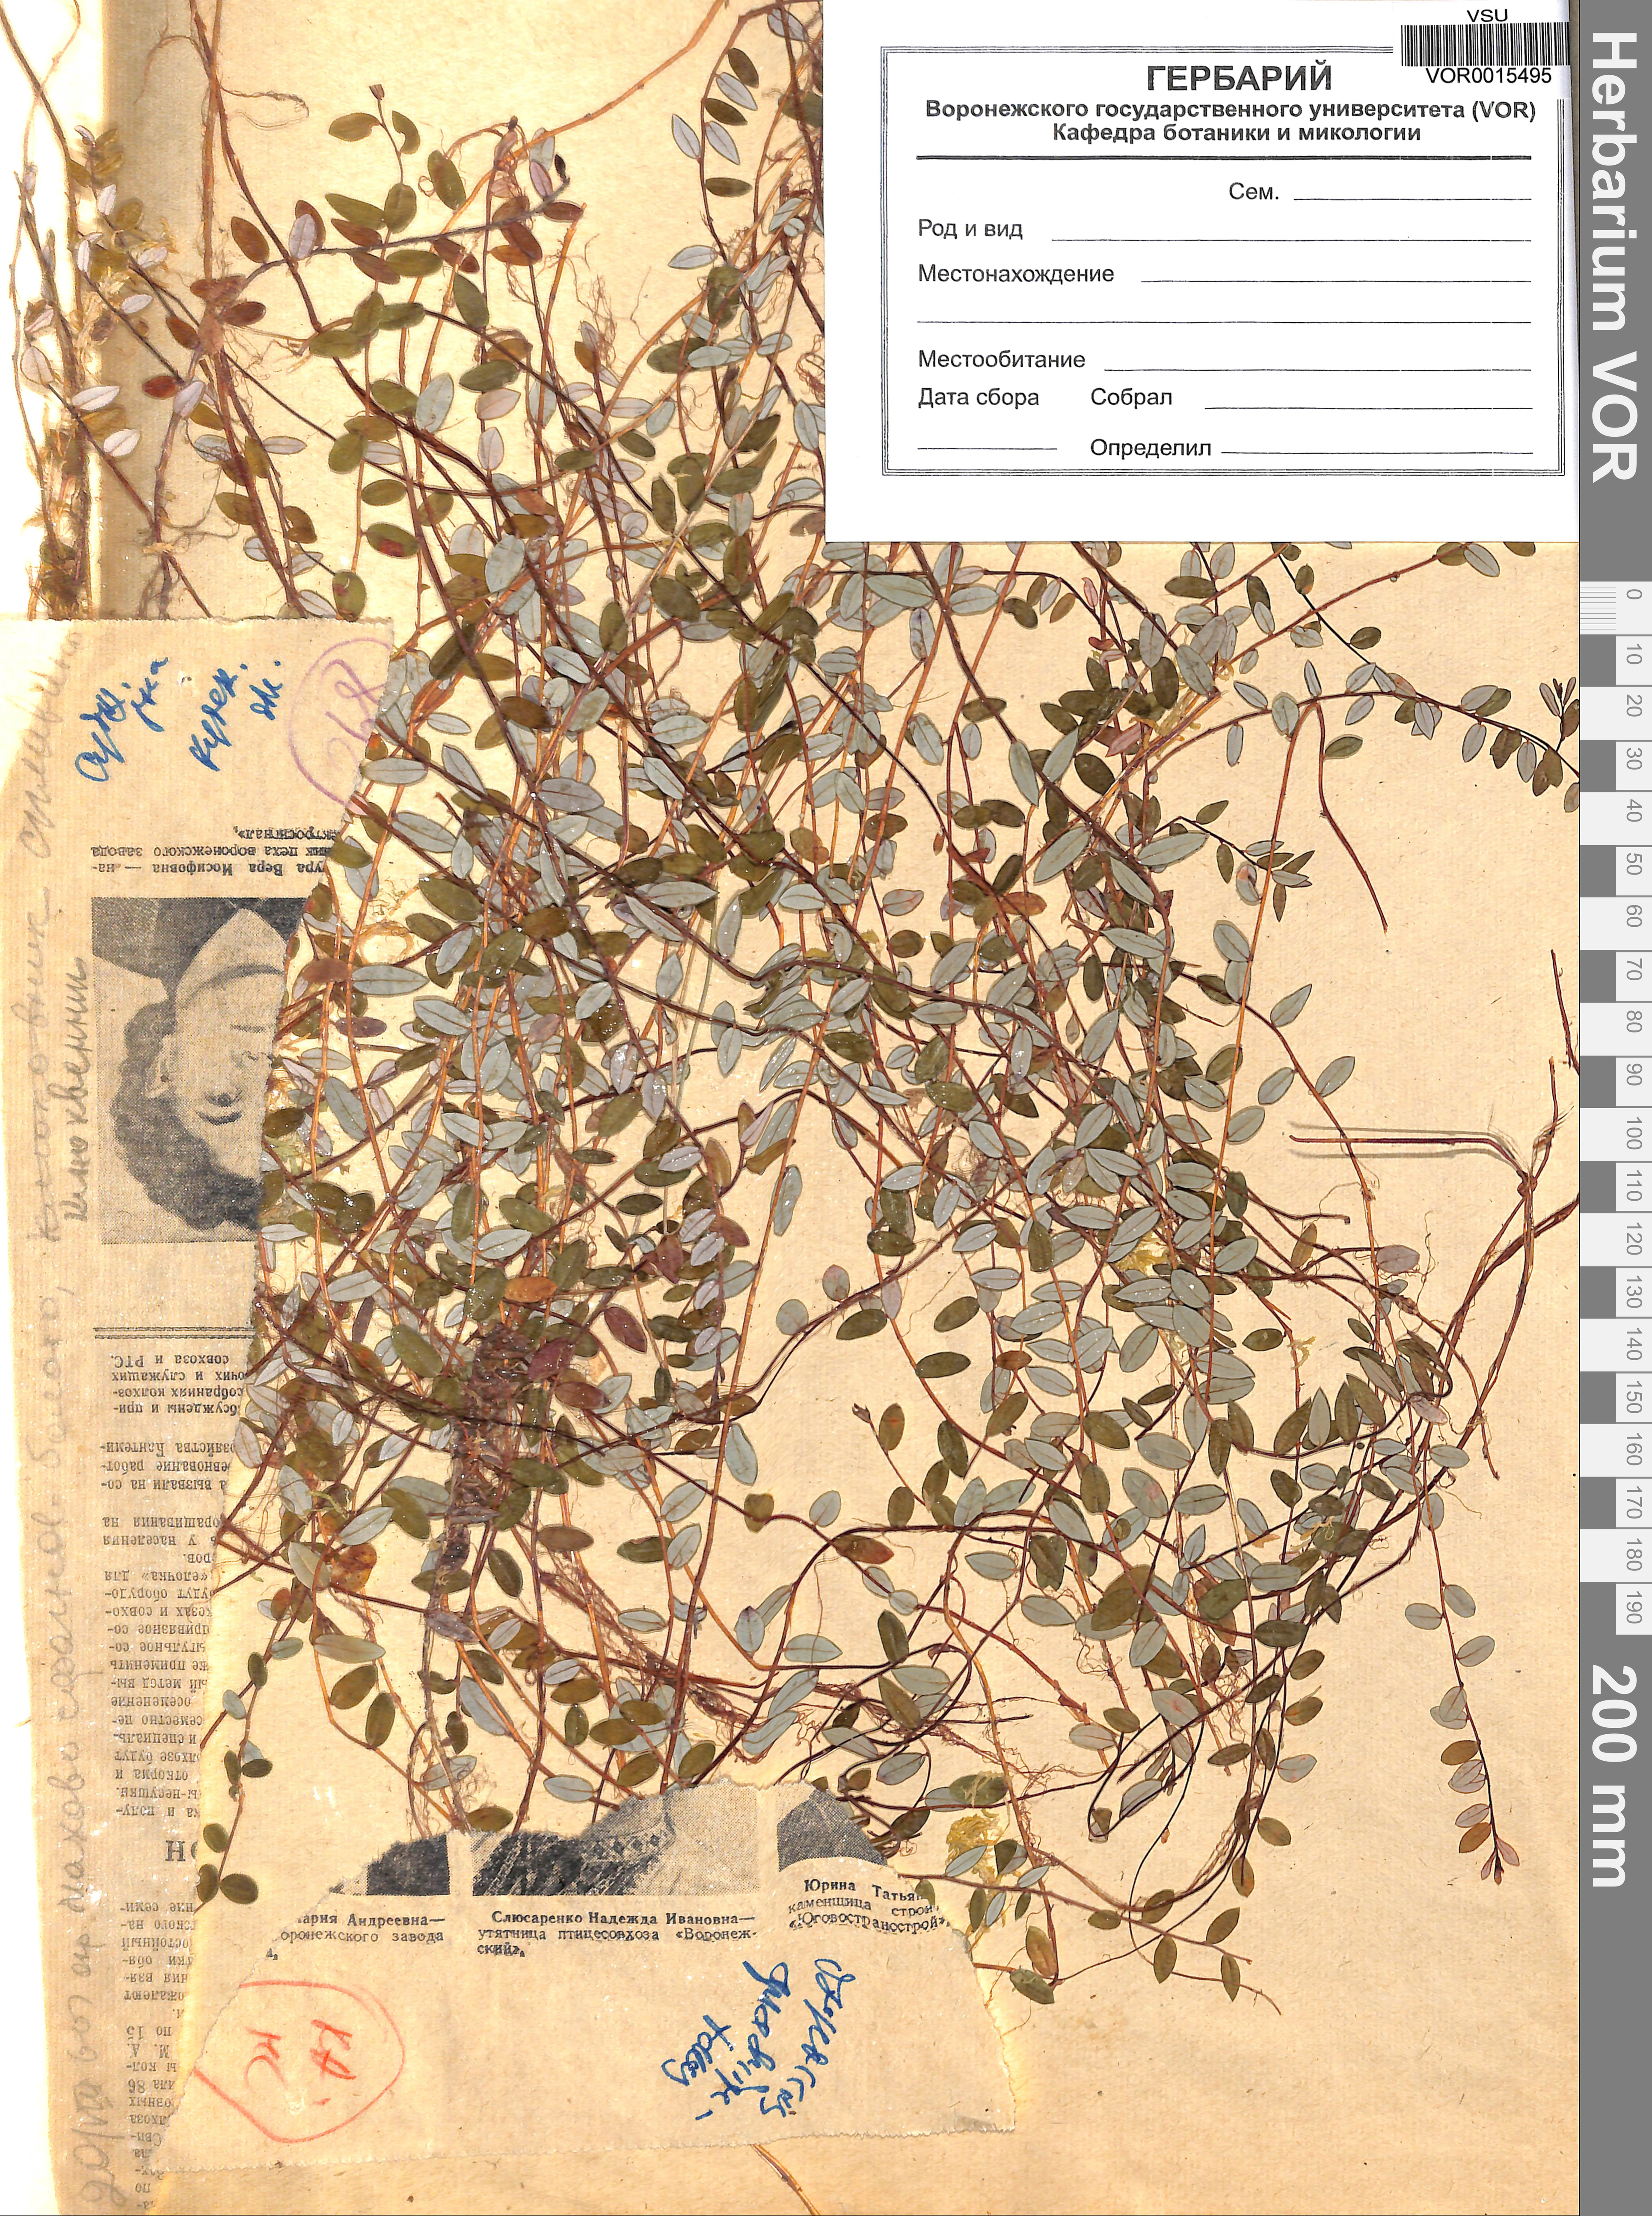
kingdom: Plantae
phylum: Tracheophyta
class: Magnoliopsida
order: Ericales
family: Ericaceae
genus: Vaccinium
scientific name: Vaccinium oxycoccos
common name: Cranberry
